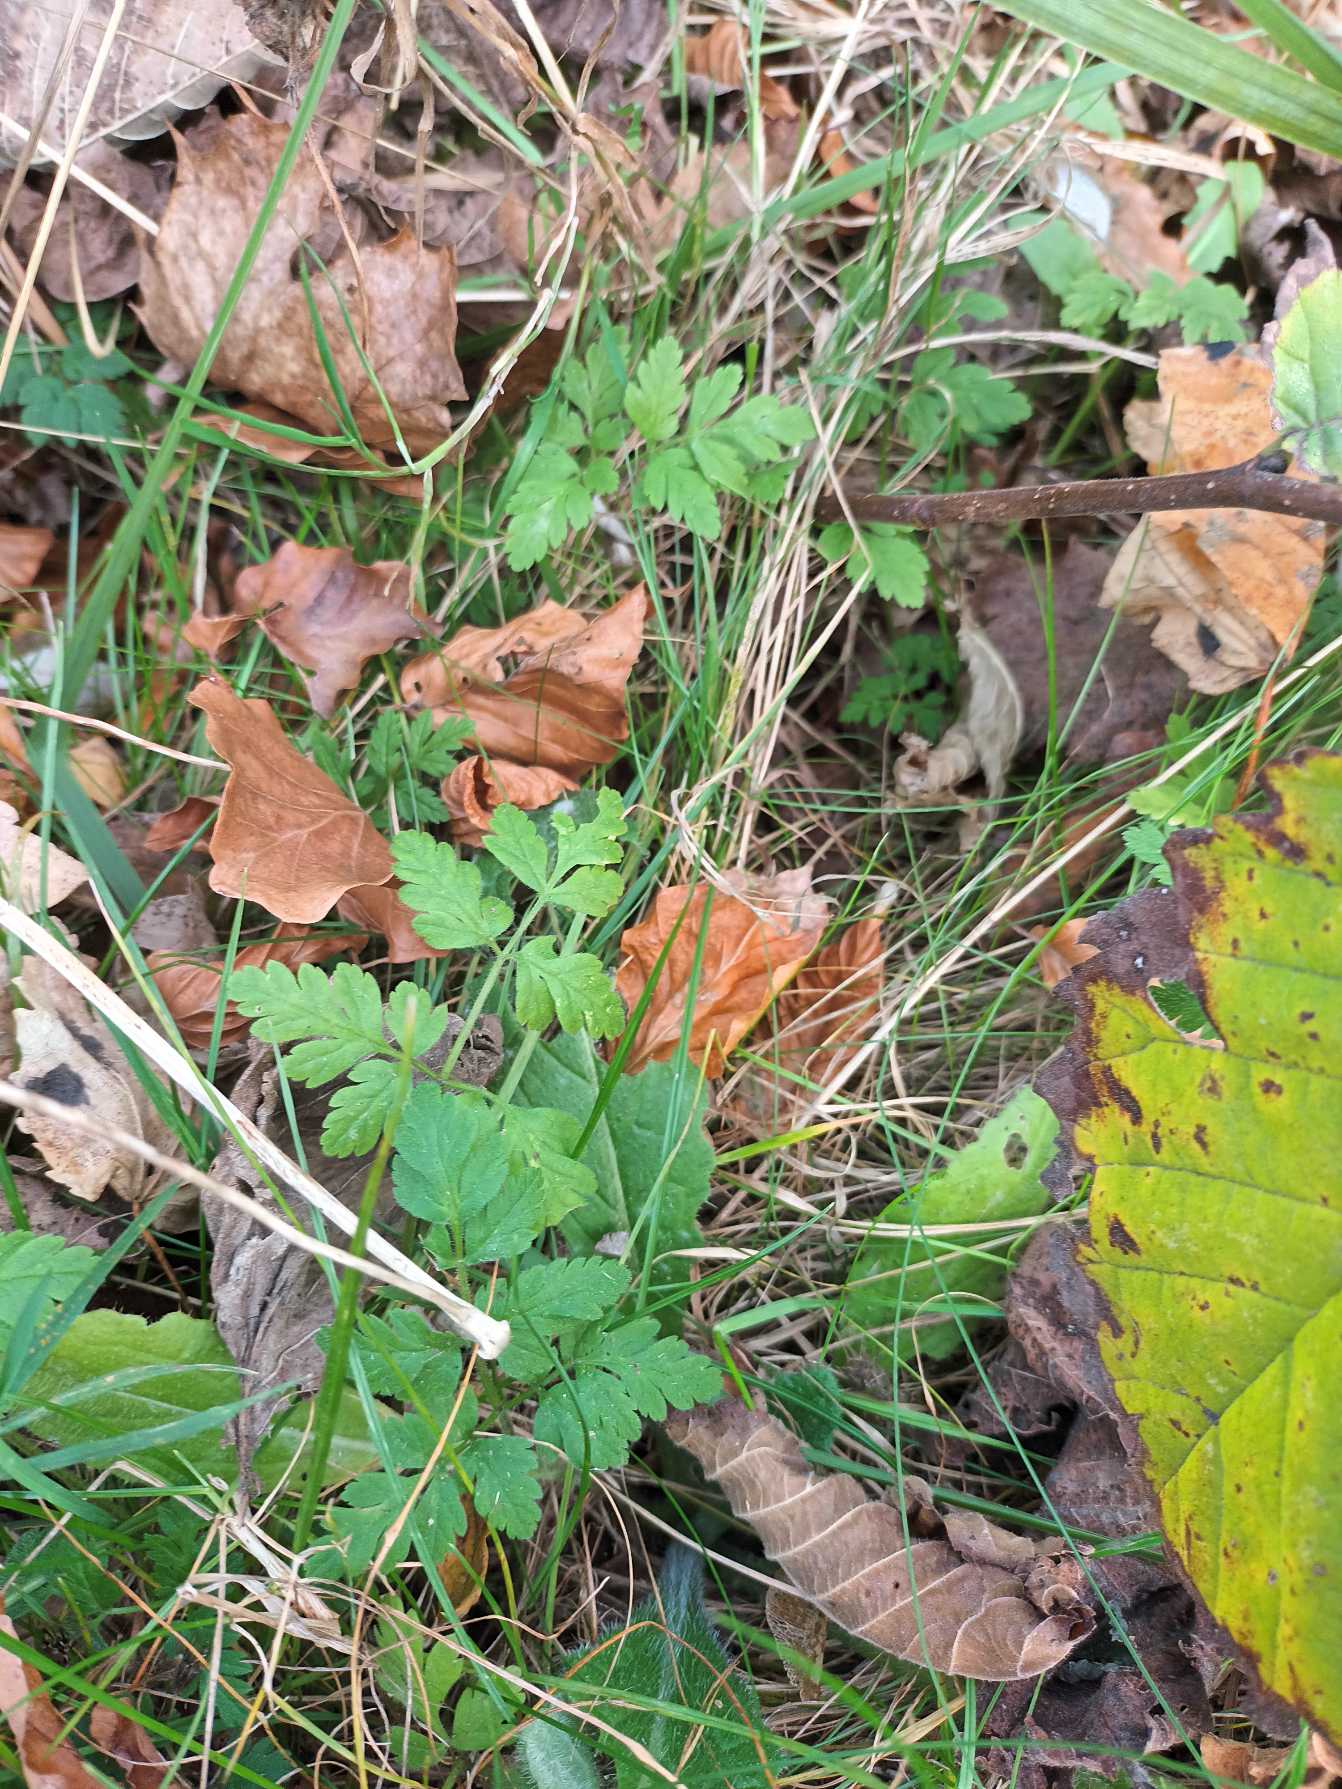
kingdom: Plantae
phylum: Tracheophyta
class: Magnoliopsida
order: Apiales
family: Apiaceae
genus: Chaerophyllum
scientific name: Chaerophyllum temulum
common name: Almindelig hulsvøb
